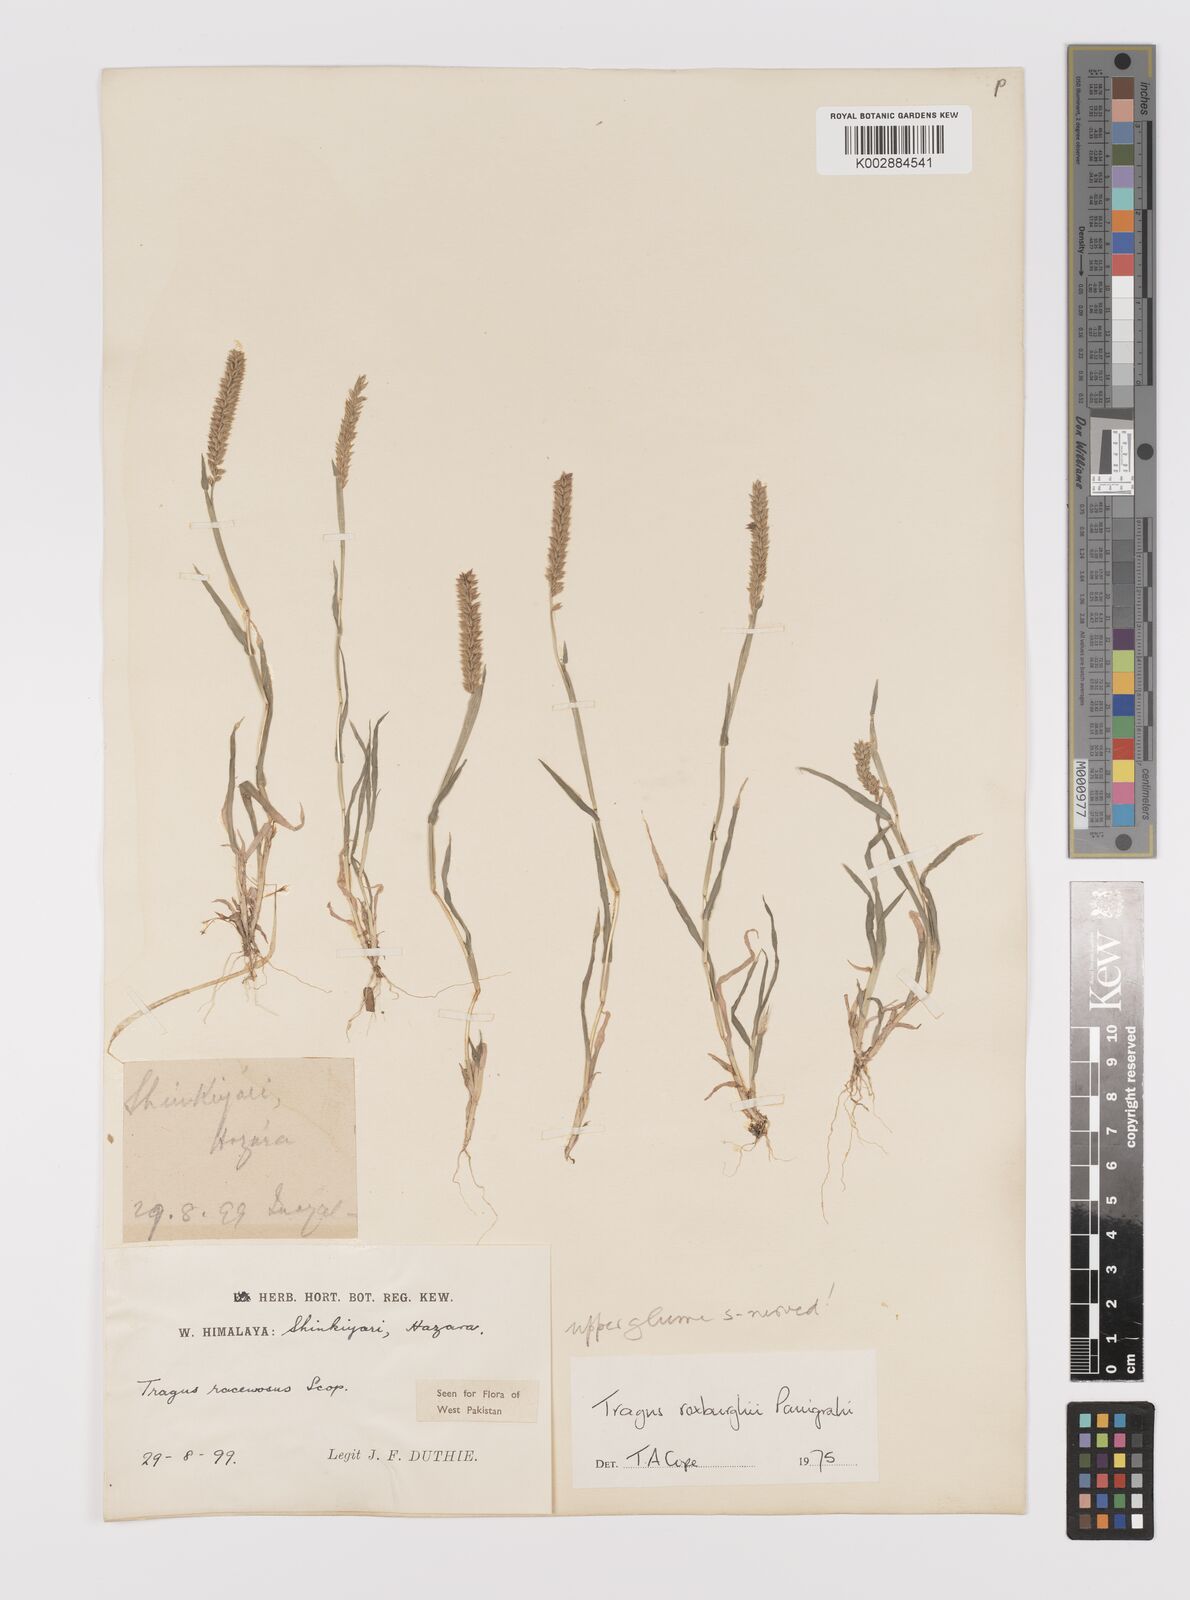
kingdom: Plantae
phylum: Tracheophyta
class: Liliopsida
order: Poales
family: Poaceae
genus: Tragus
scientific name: Tragus mongolorum
